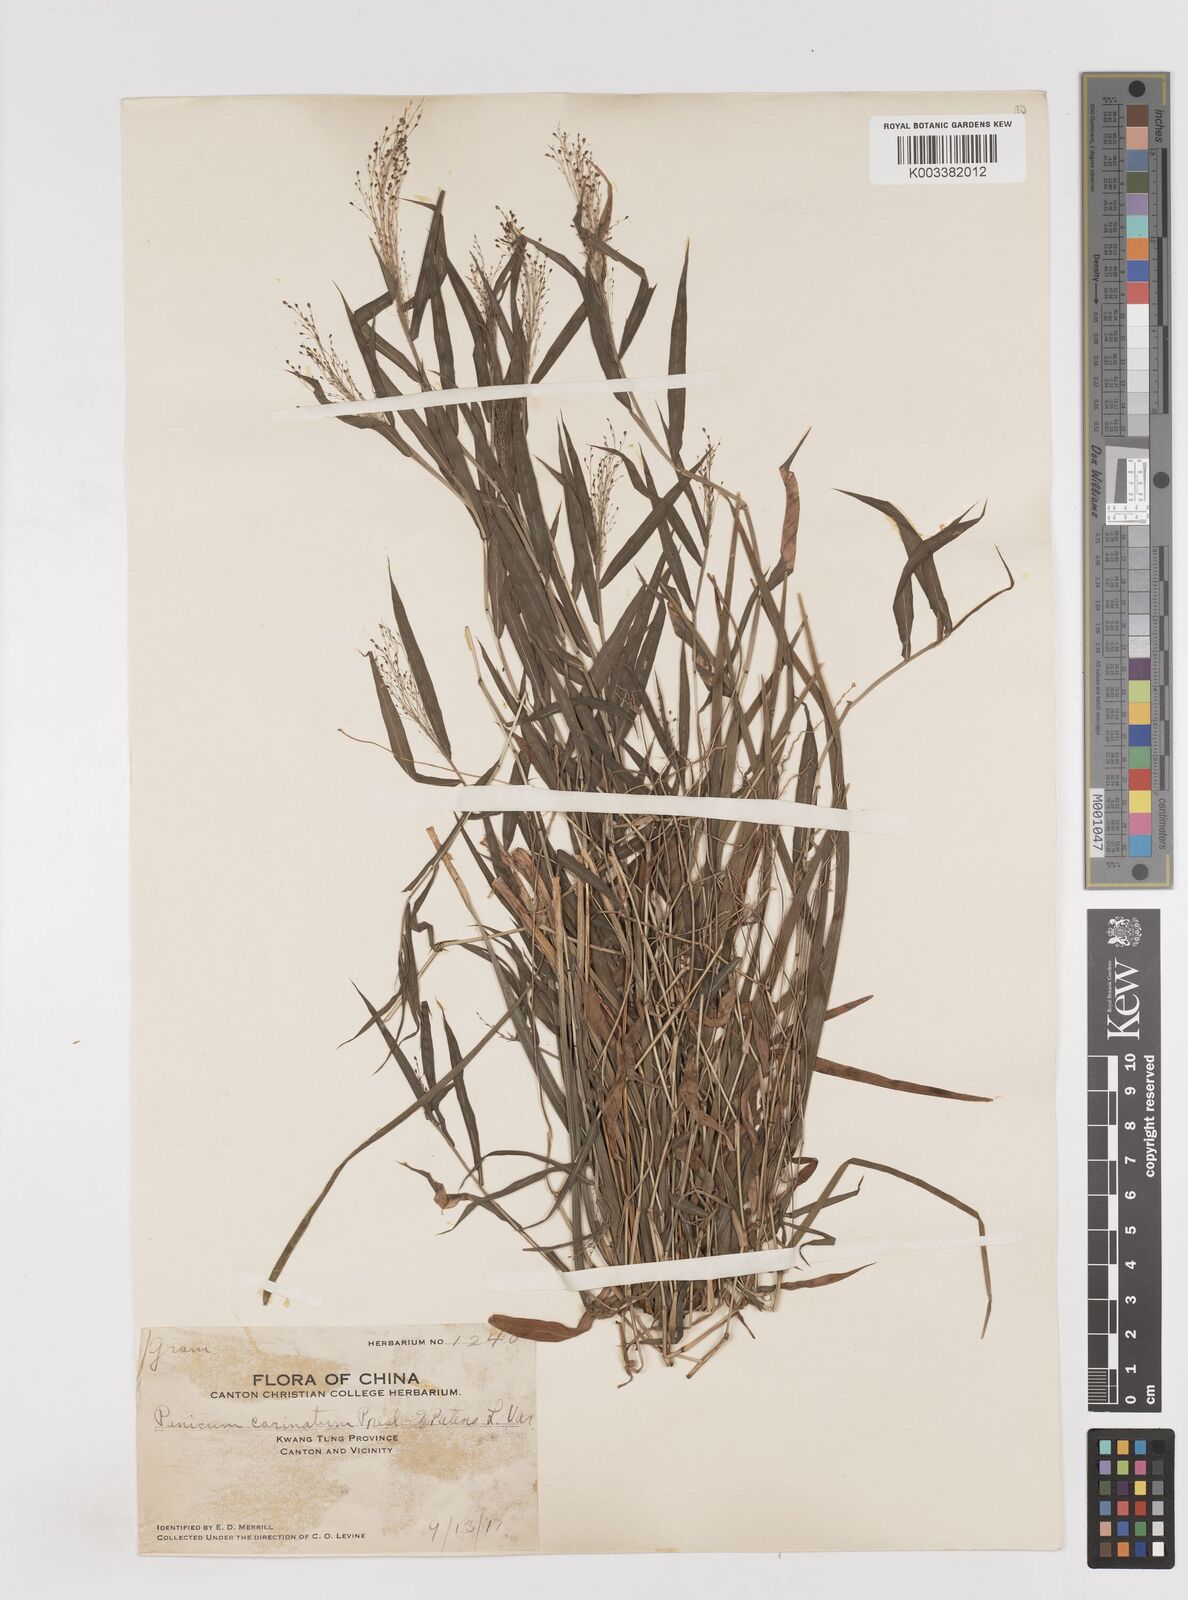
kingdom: Plantae
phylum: Tracheophyta
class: Liliopsida
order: Poales
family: Poaceae
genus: Cyrtococcum
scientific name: Cyrtococcum patens
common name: Broad-leaved bowgrass
